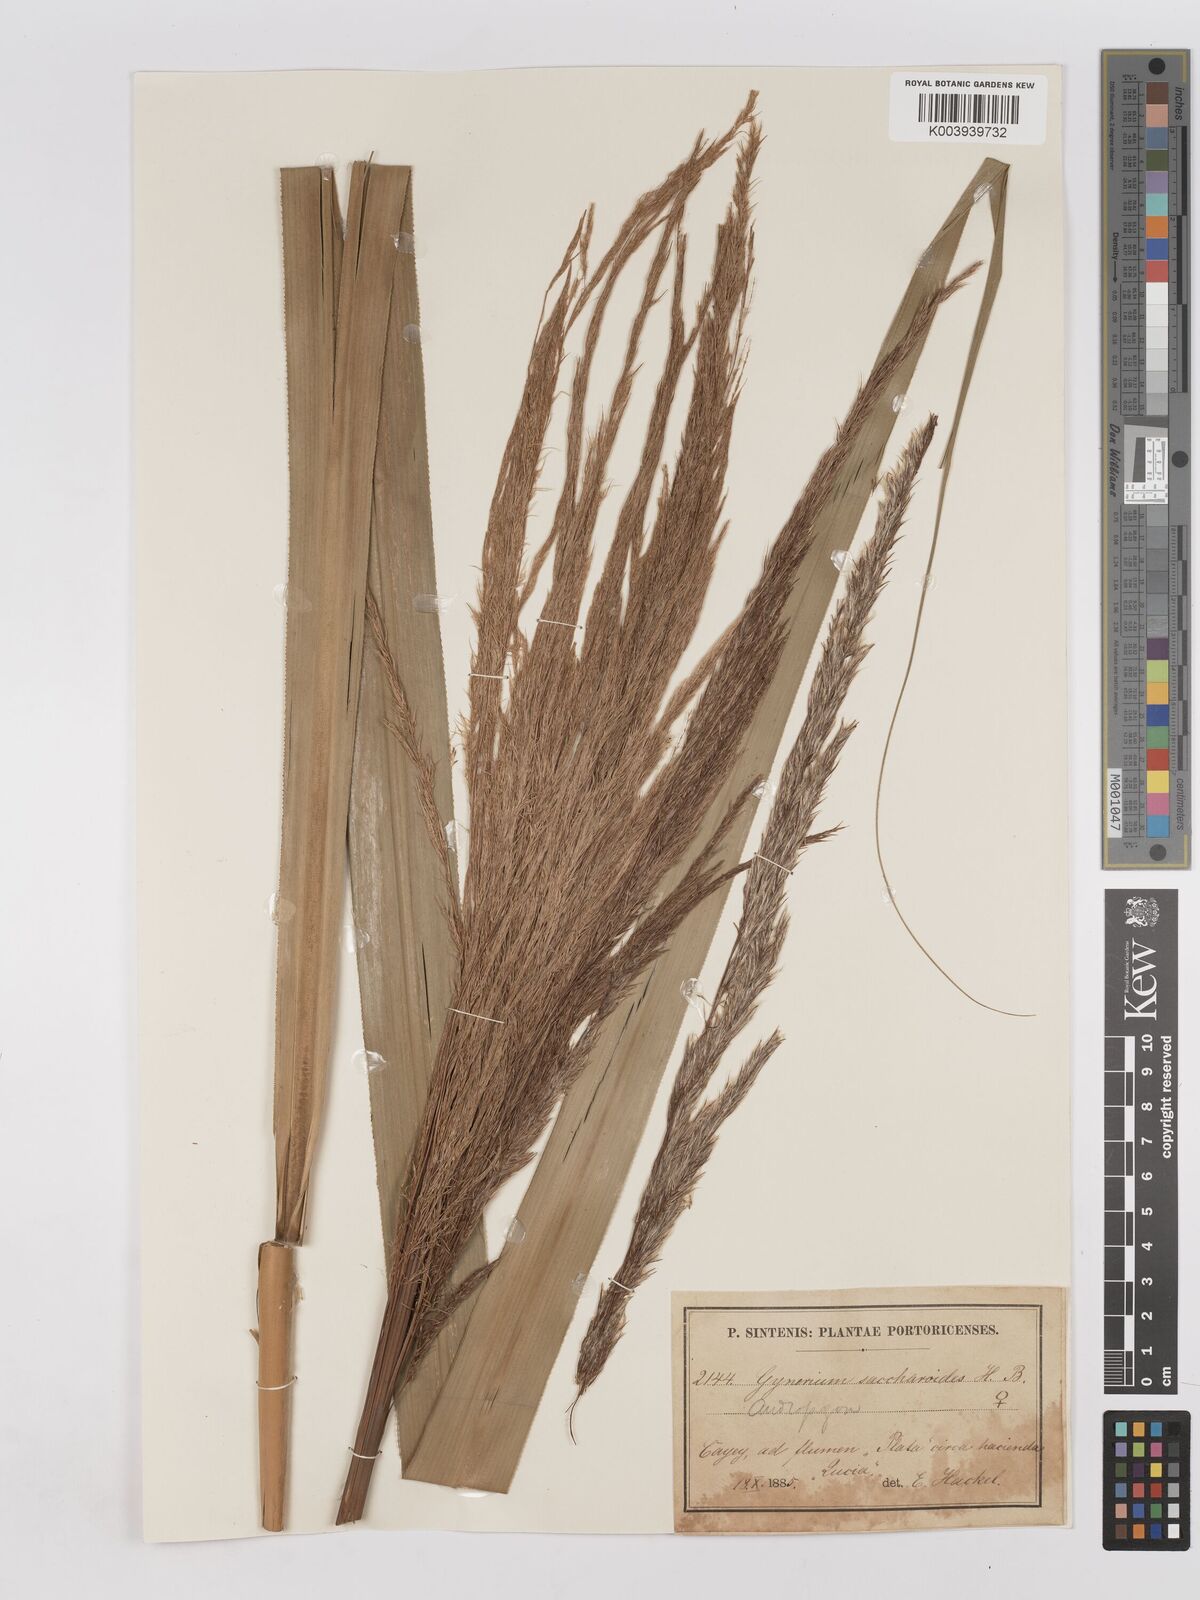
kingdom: Plantae
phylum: Tracheophyta
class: Liliopsida
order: Poales
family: Poaceae
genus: Gynerium
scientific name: Gynerium sagittatum
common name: Wild cane
